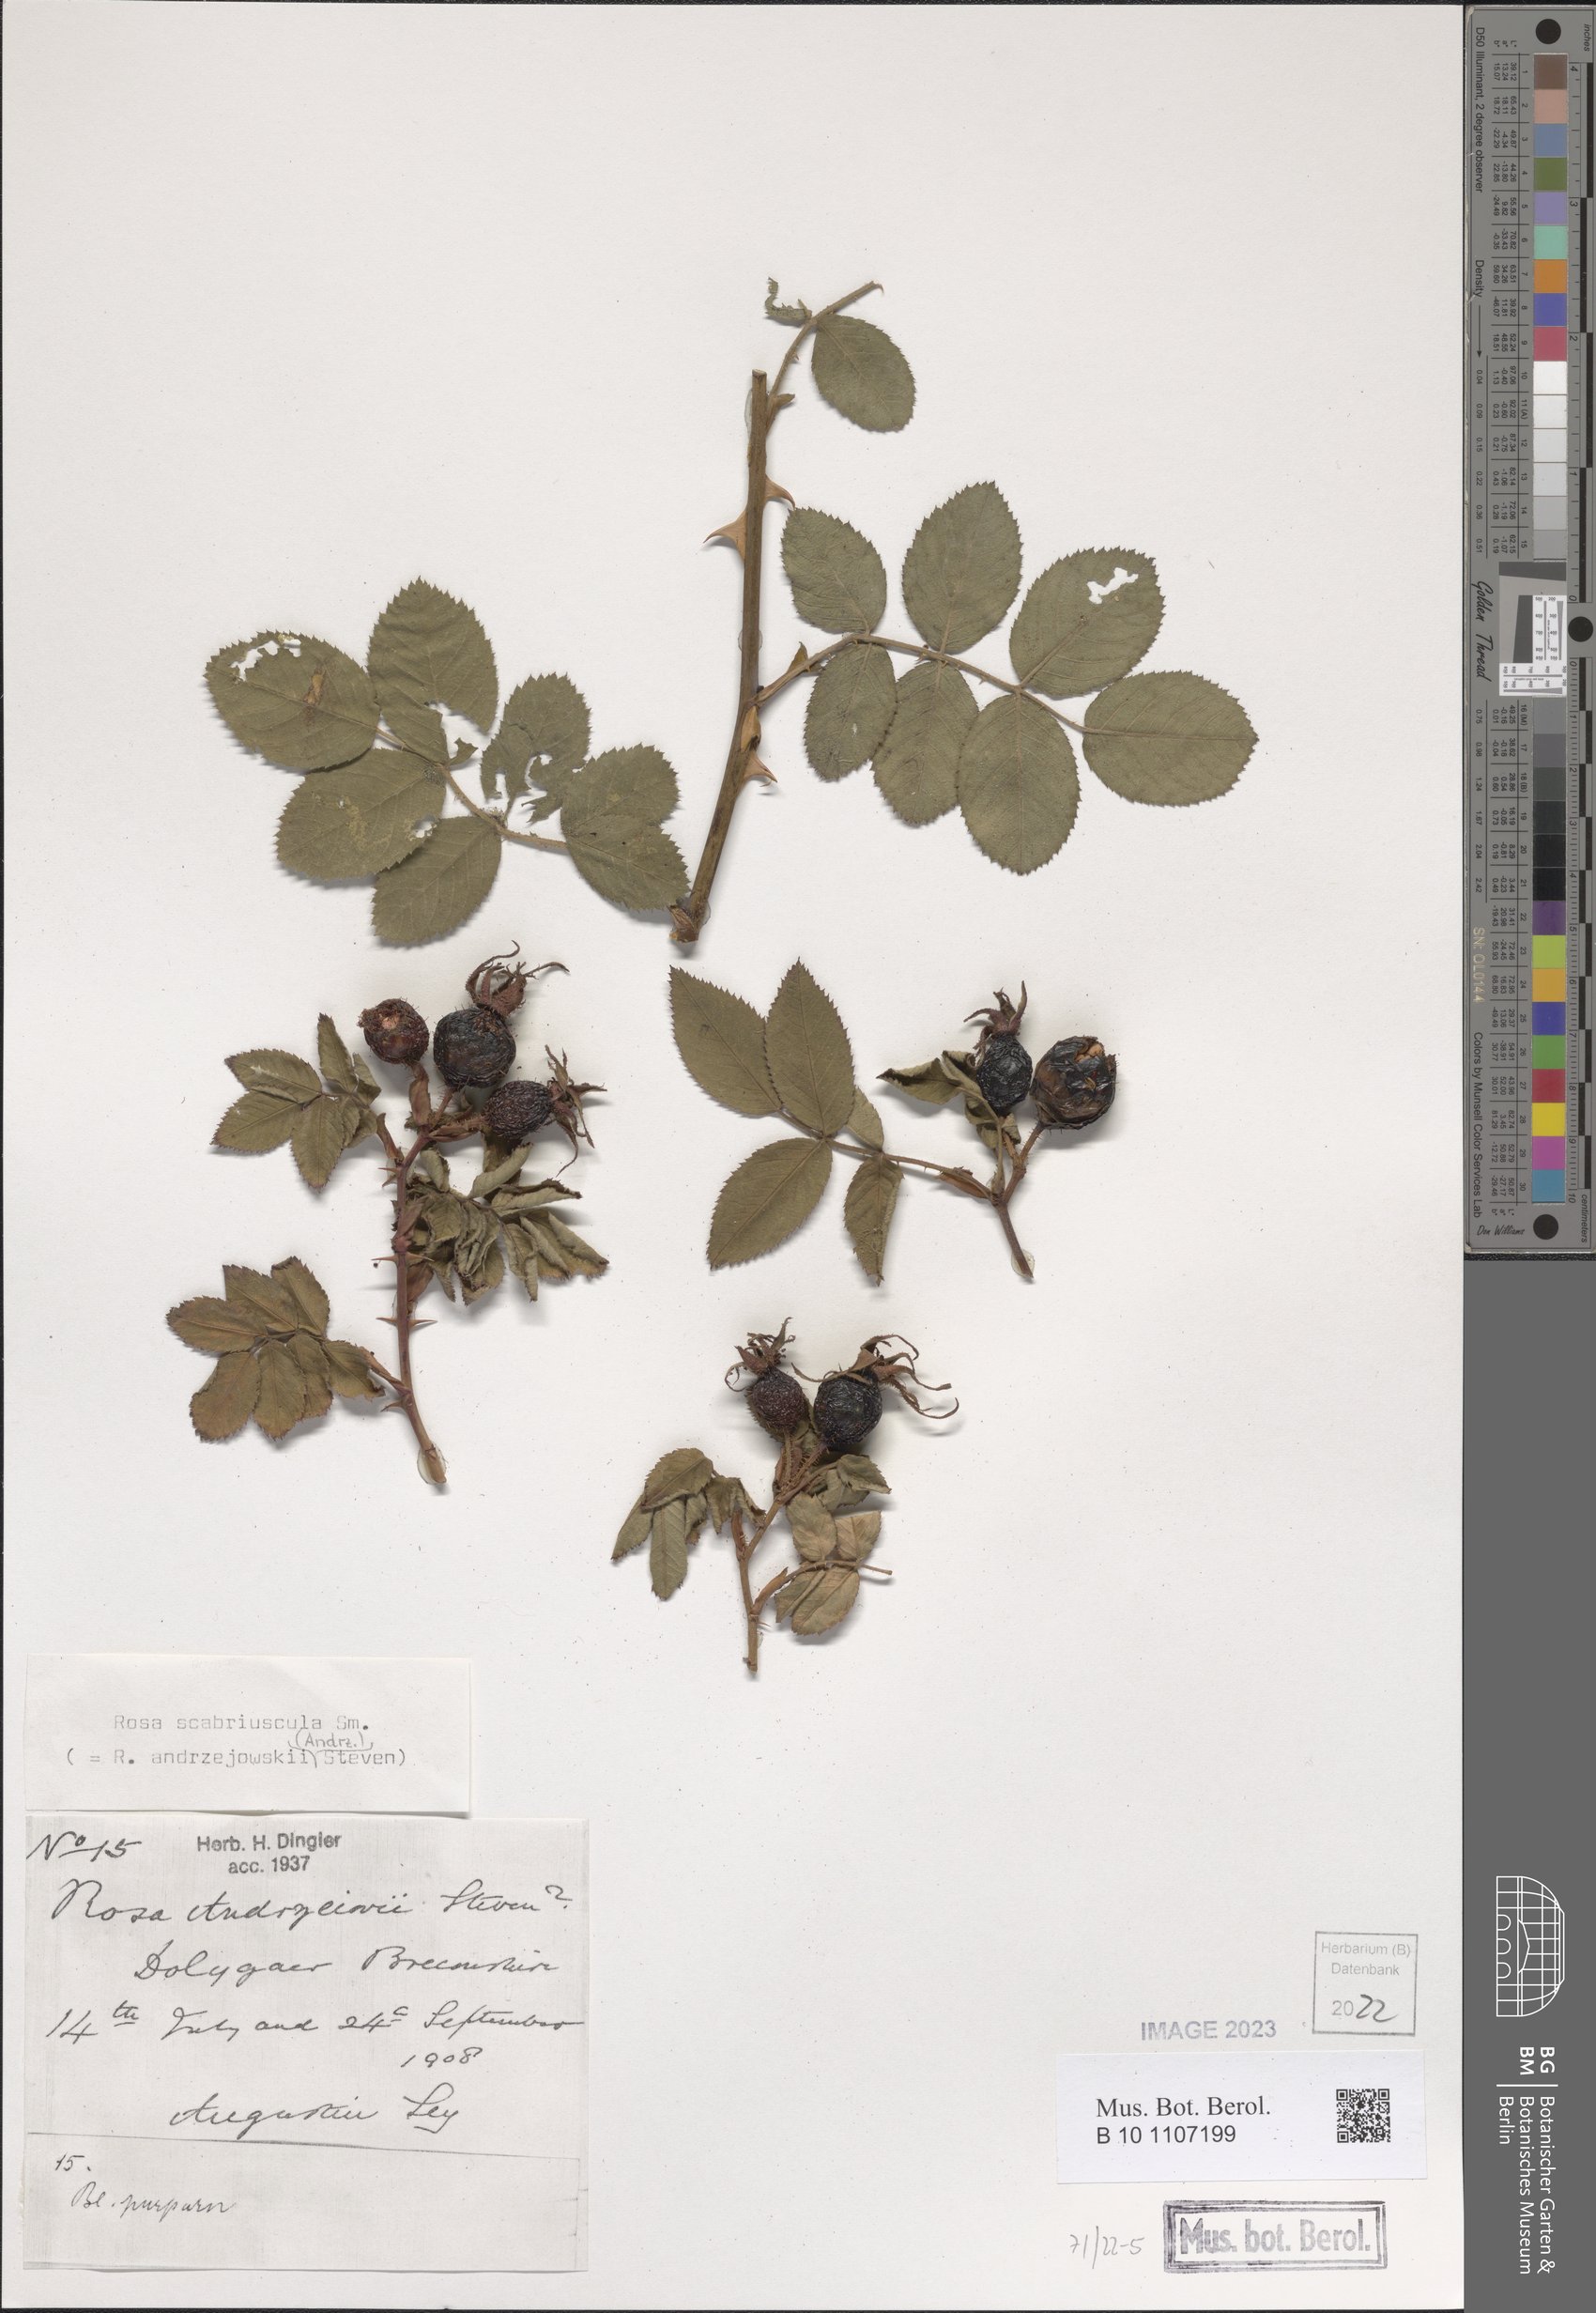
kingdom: Plantae
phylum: Tracheophyta
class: Magnoliopsida
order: Rosales
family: Rosaceae
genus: Rosa
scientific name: Rosa scabriuscula
